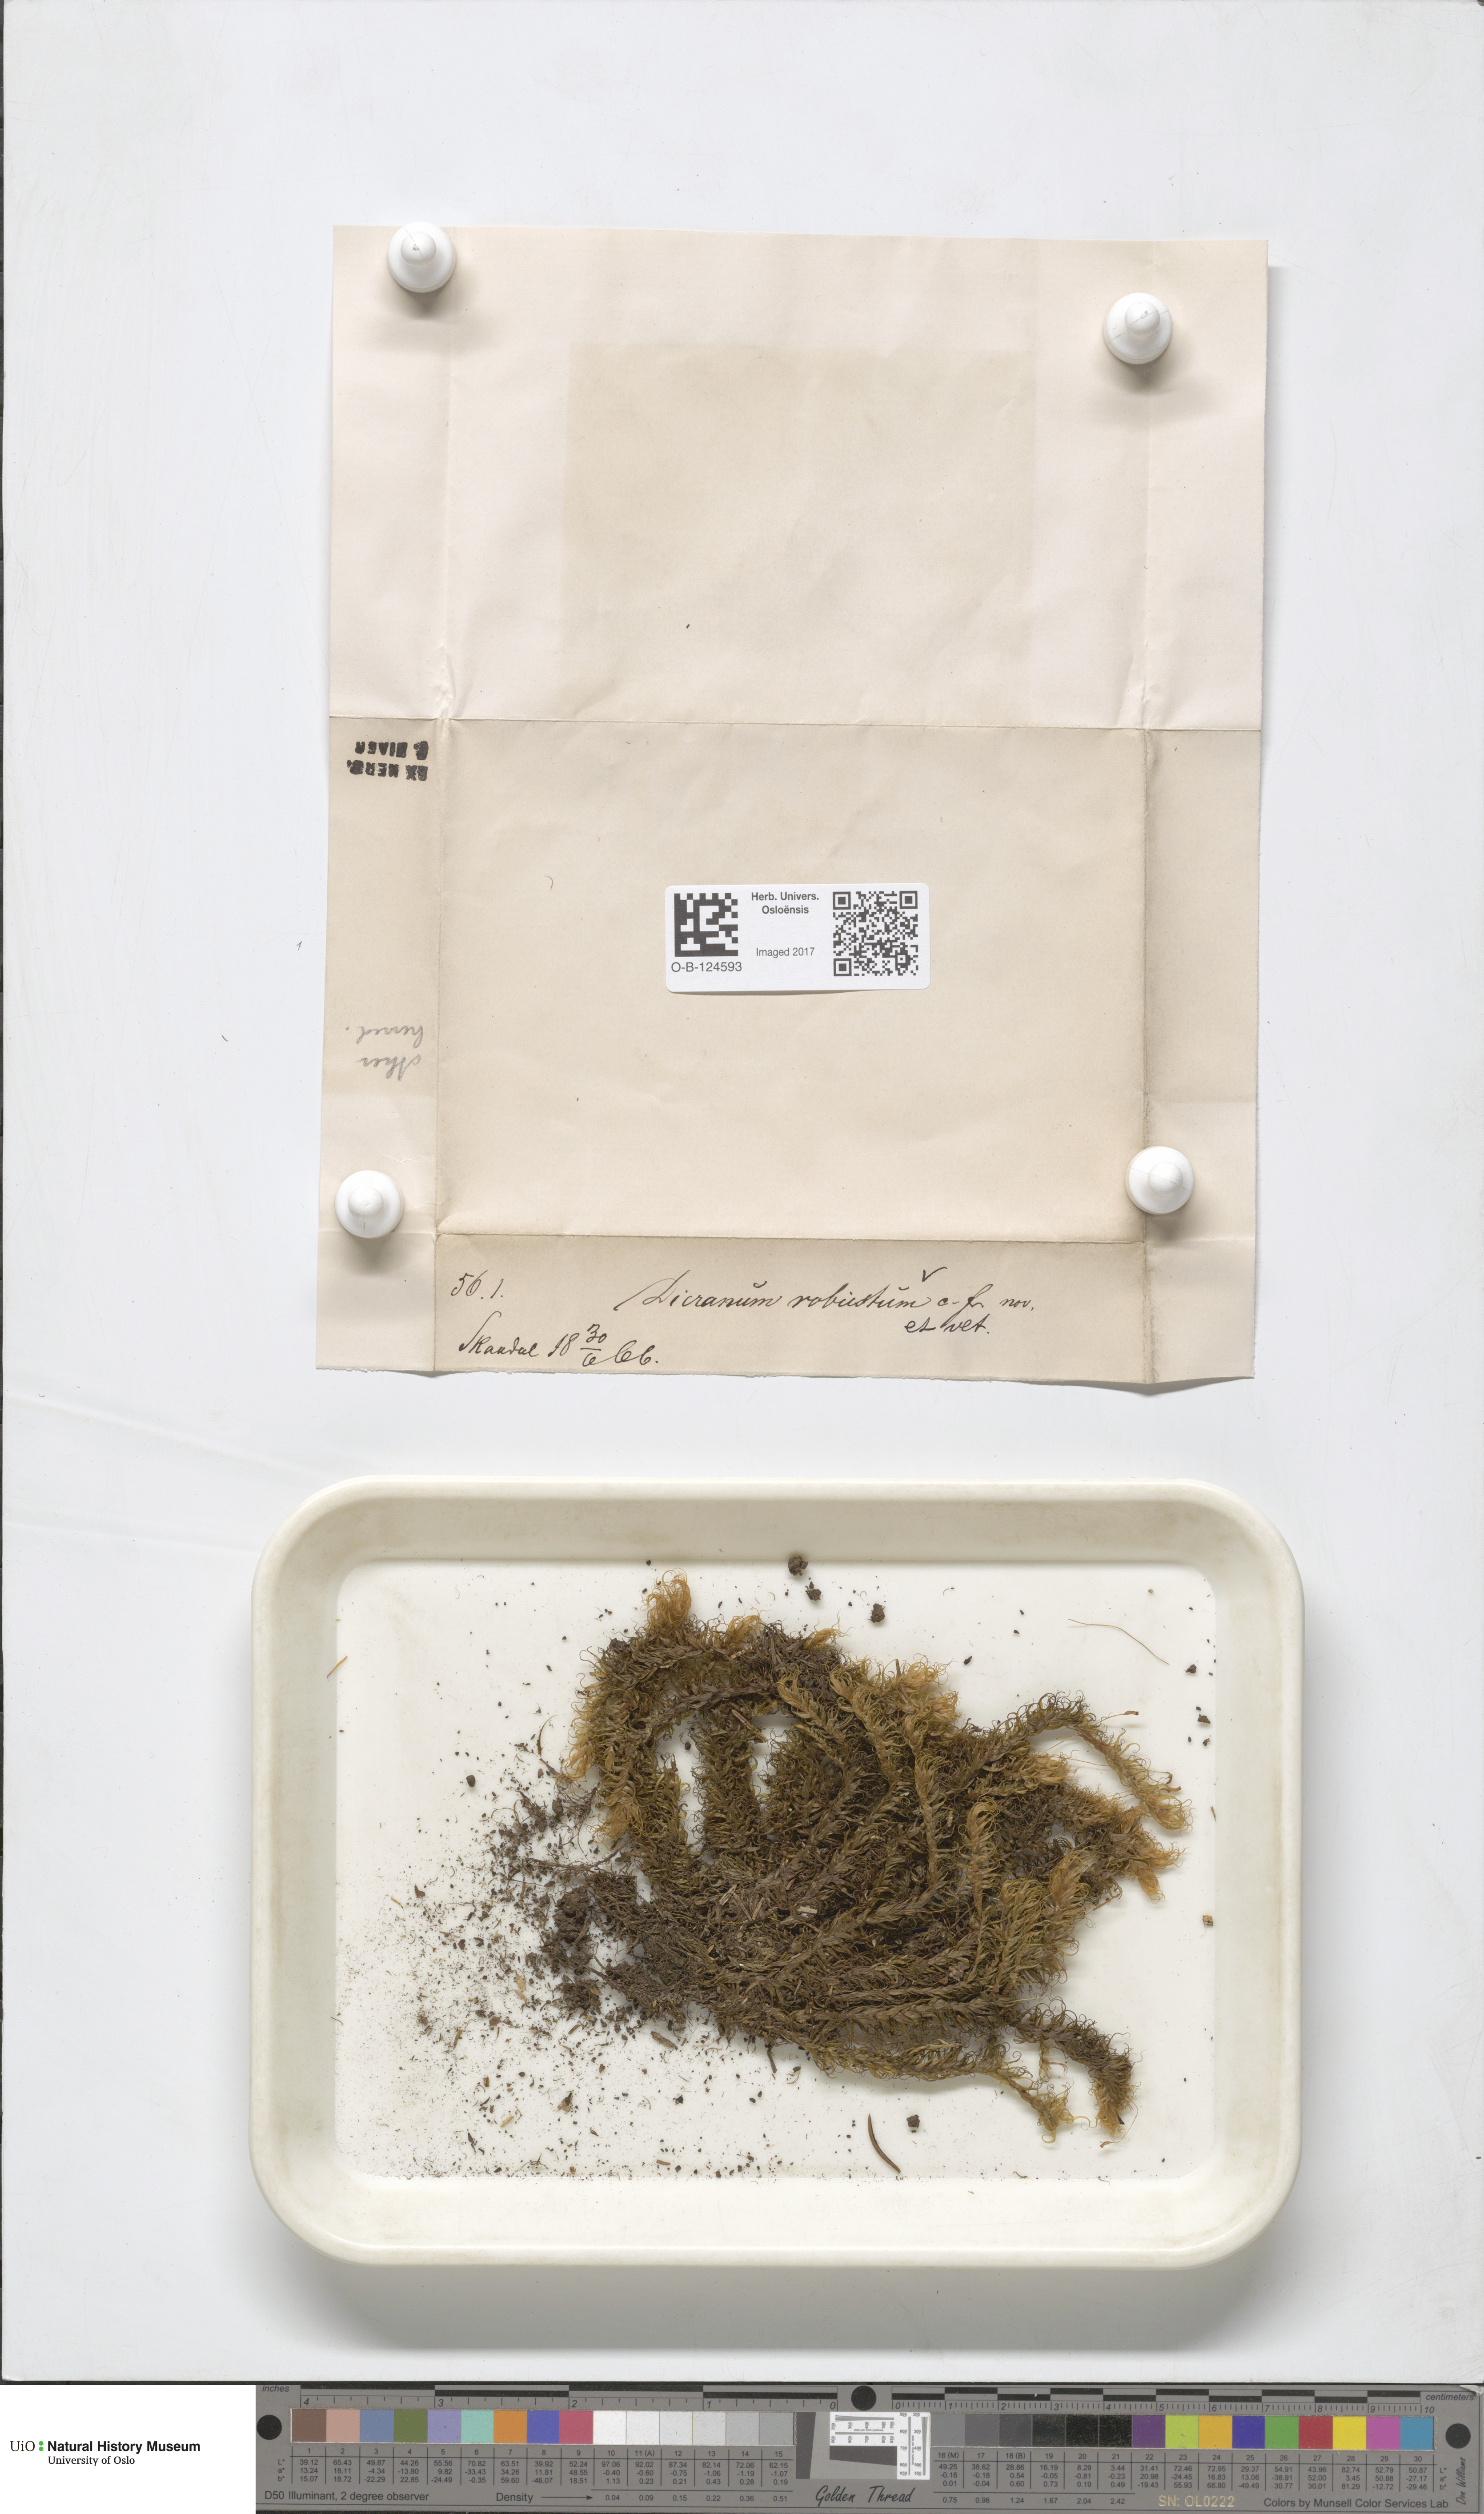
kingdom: Plantae
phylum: Bryophyta
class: Bryopsida
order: Dicranales
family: Dicranaceae
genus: Dicranum
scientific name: Dicranum drummondii
